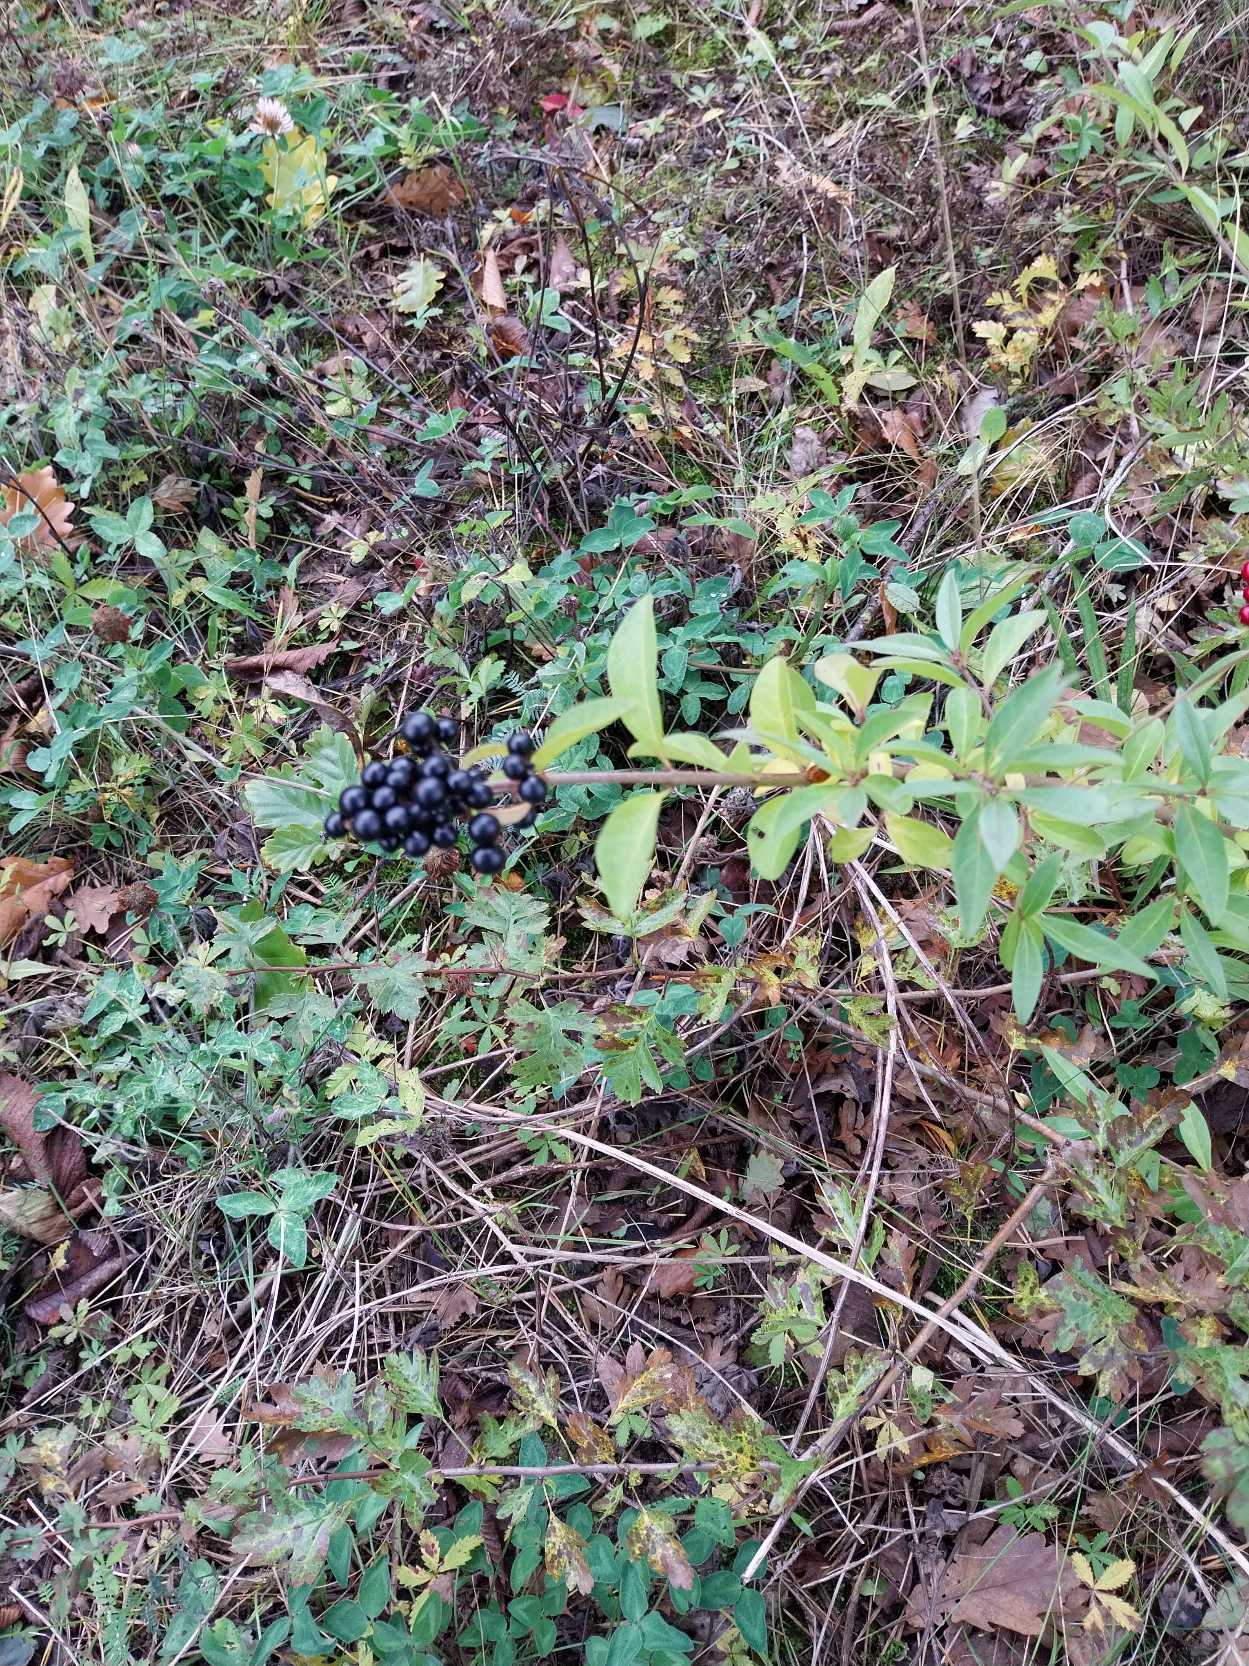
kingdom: Plantae
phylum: Tracheophyta
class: Magnoliopsida
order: Lamiales
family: Oleaceae
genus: Ligustrum
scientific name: Ligustrum vulgare
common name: Liguster
